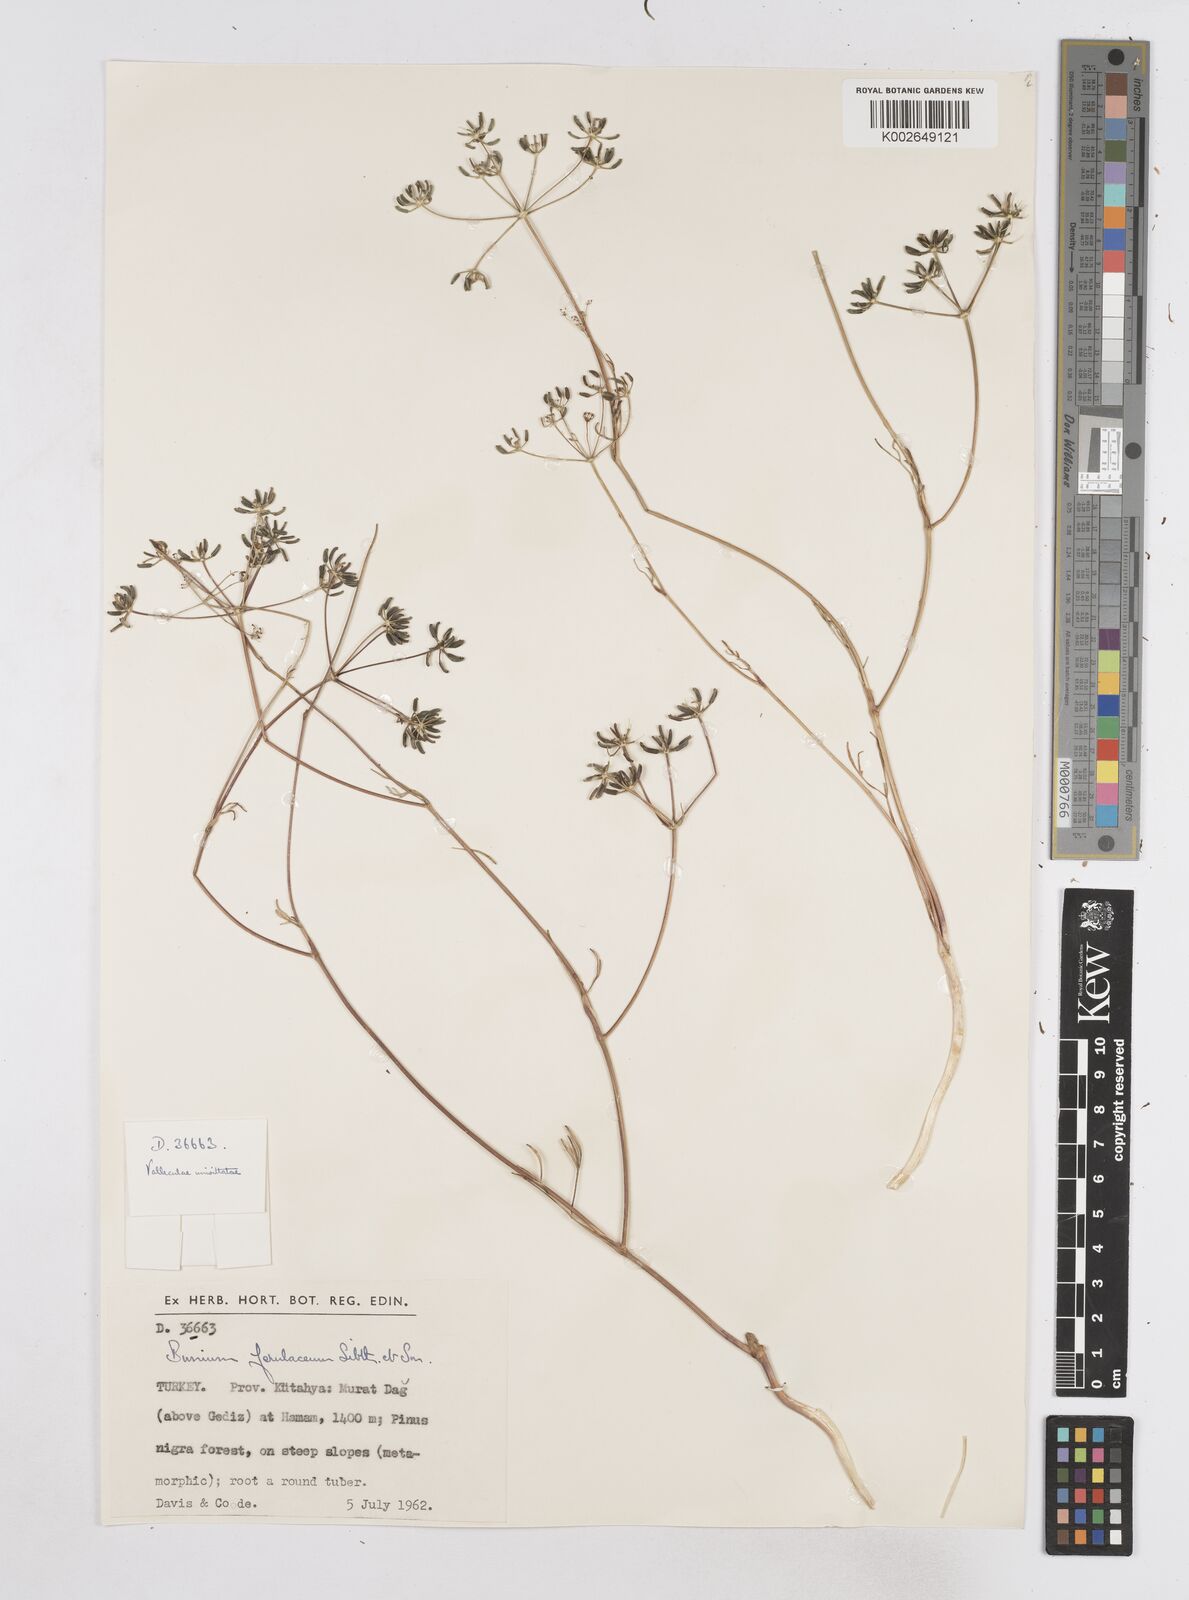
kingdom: Plantae
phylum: Tracheophyta
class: Magnoliopsida
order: Apiales
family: Apiaceae
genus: Bunium
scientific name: Bunium ferulaceum
